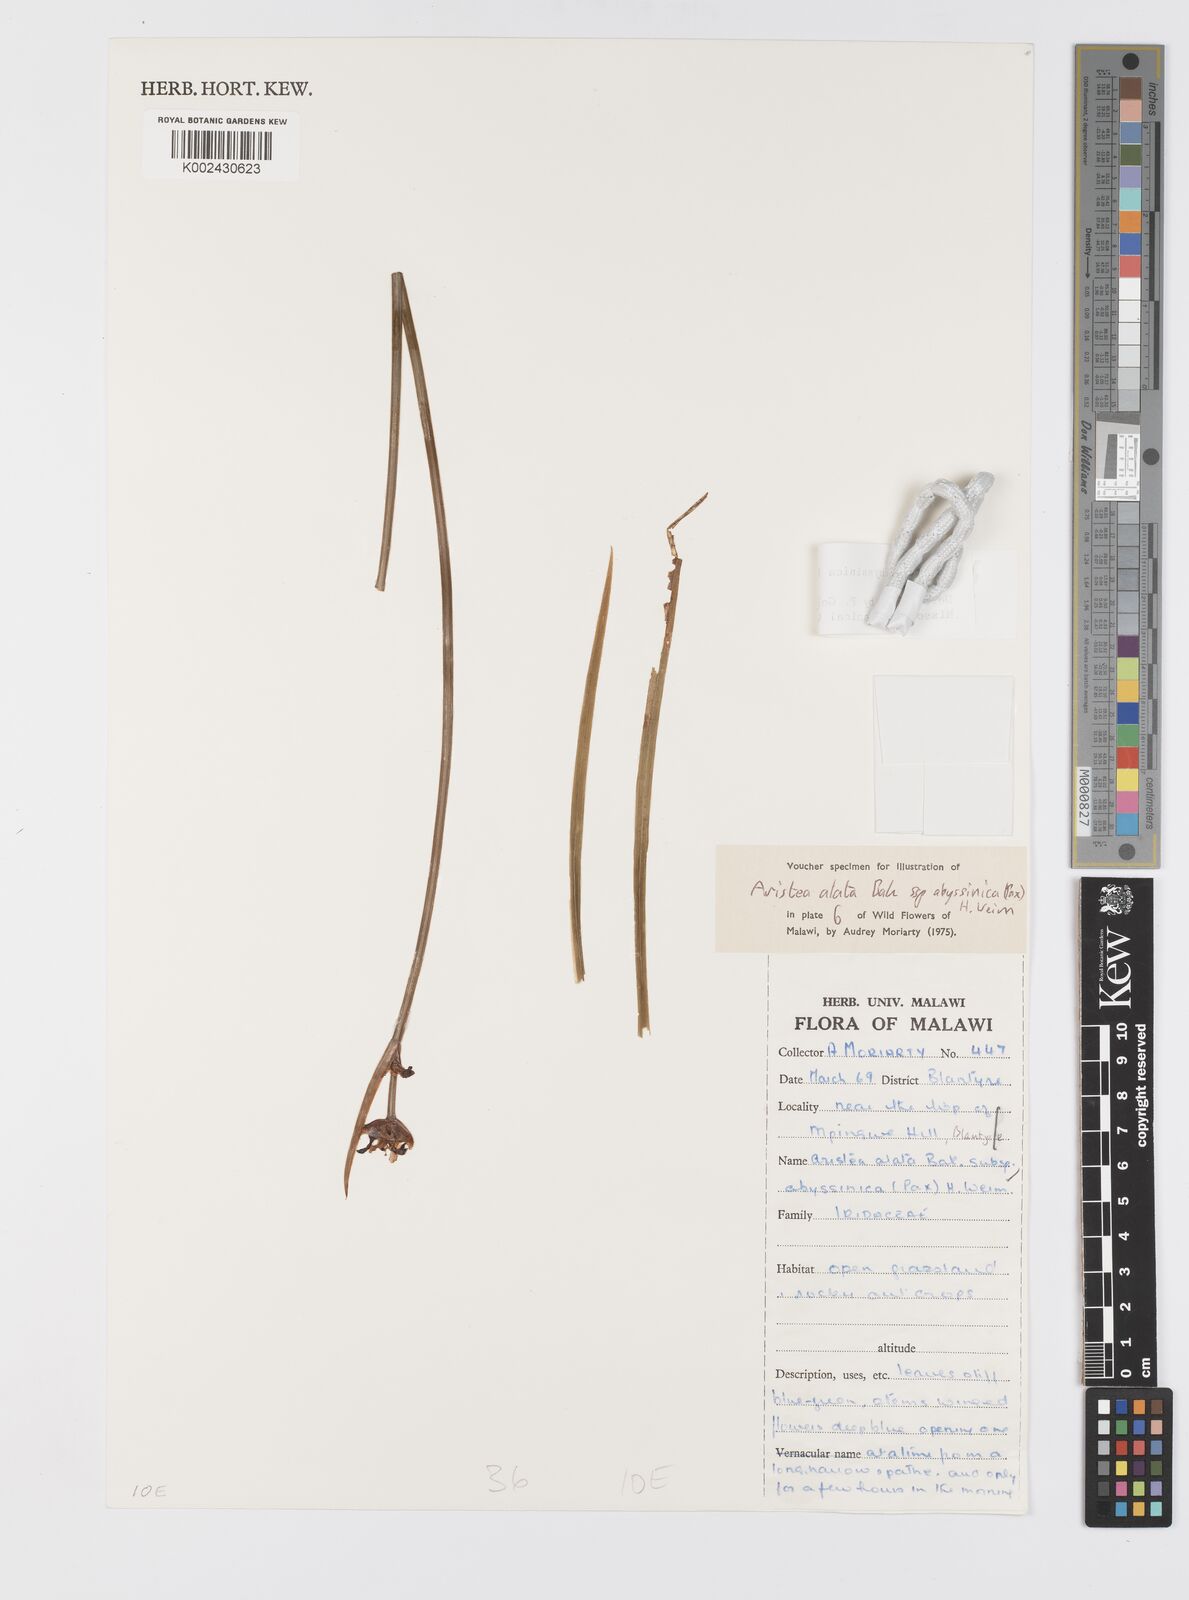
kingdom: Plantae
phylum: Tracheophyta
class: Liliopsida
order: Asparagales
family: Iridaceae
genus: Aristea
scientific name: Aristea abyssinica
